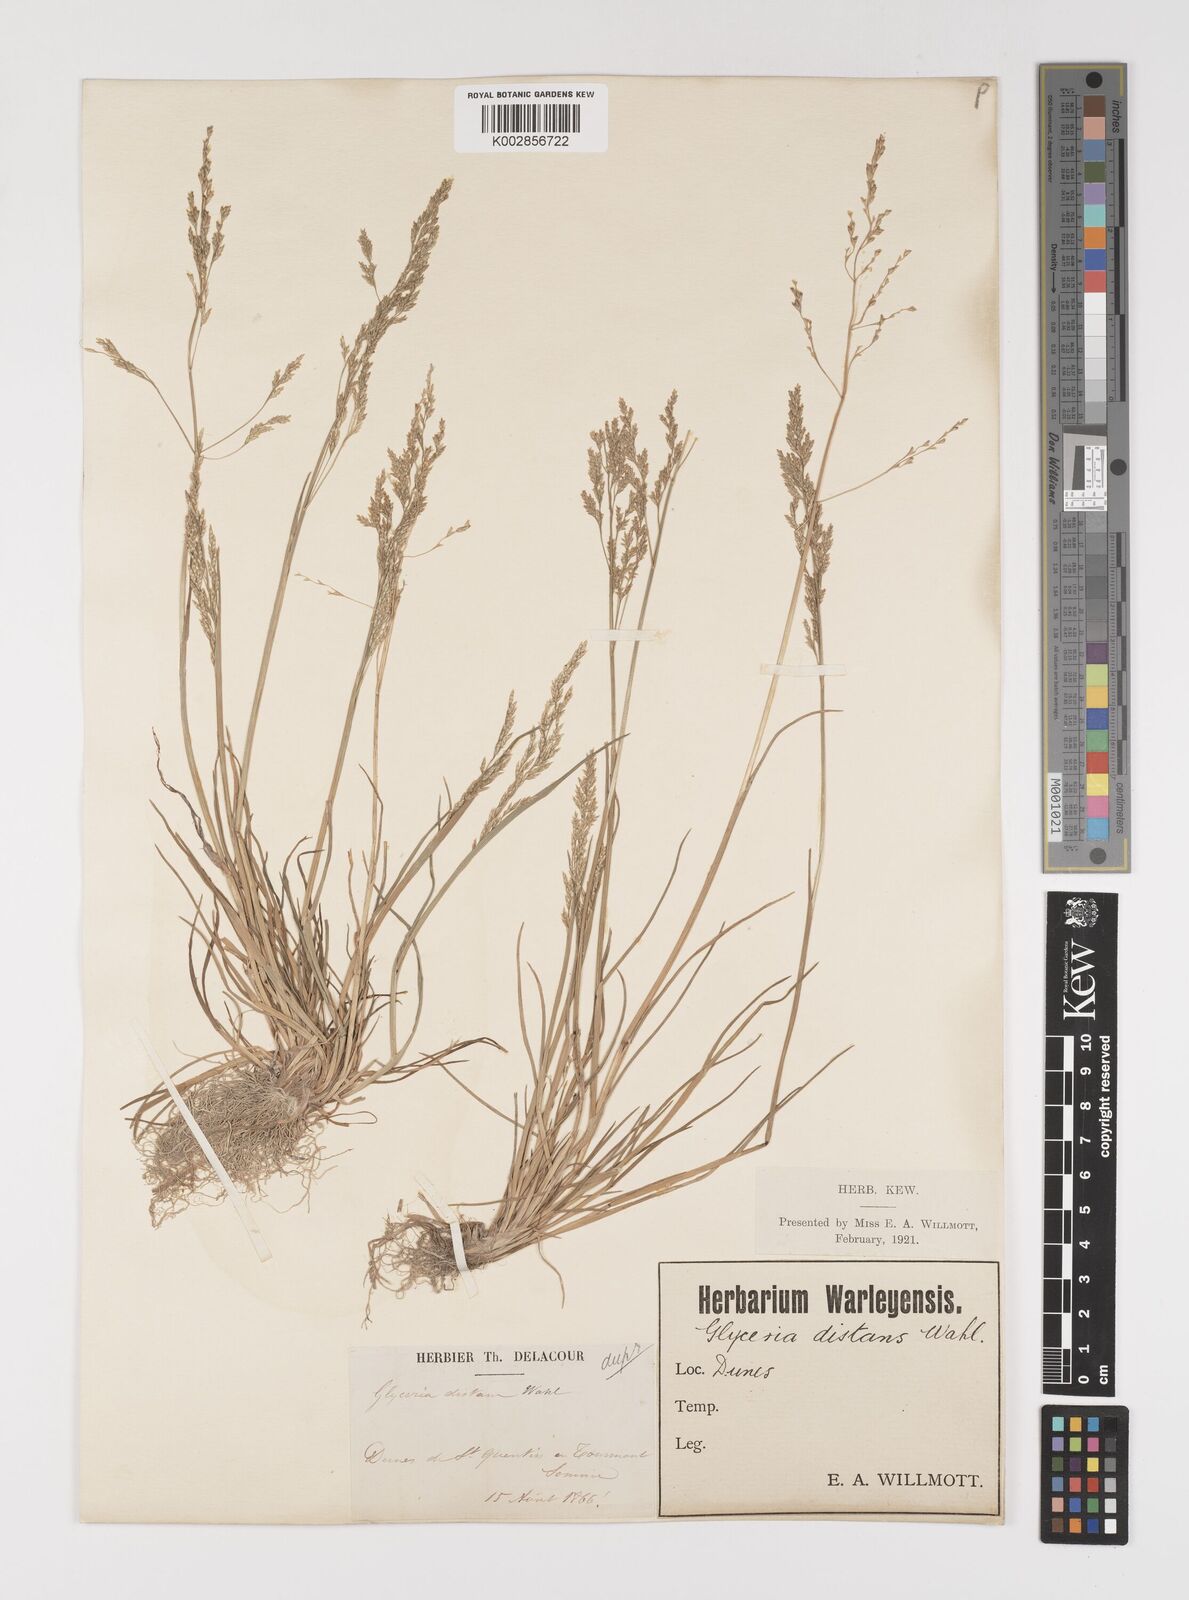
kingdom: Plantae
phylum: Tracheophyta
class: Liliopsida
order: Poales
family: Poaceae
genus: Puccinellia
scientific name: Puccinellia
